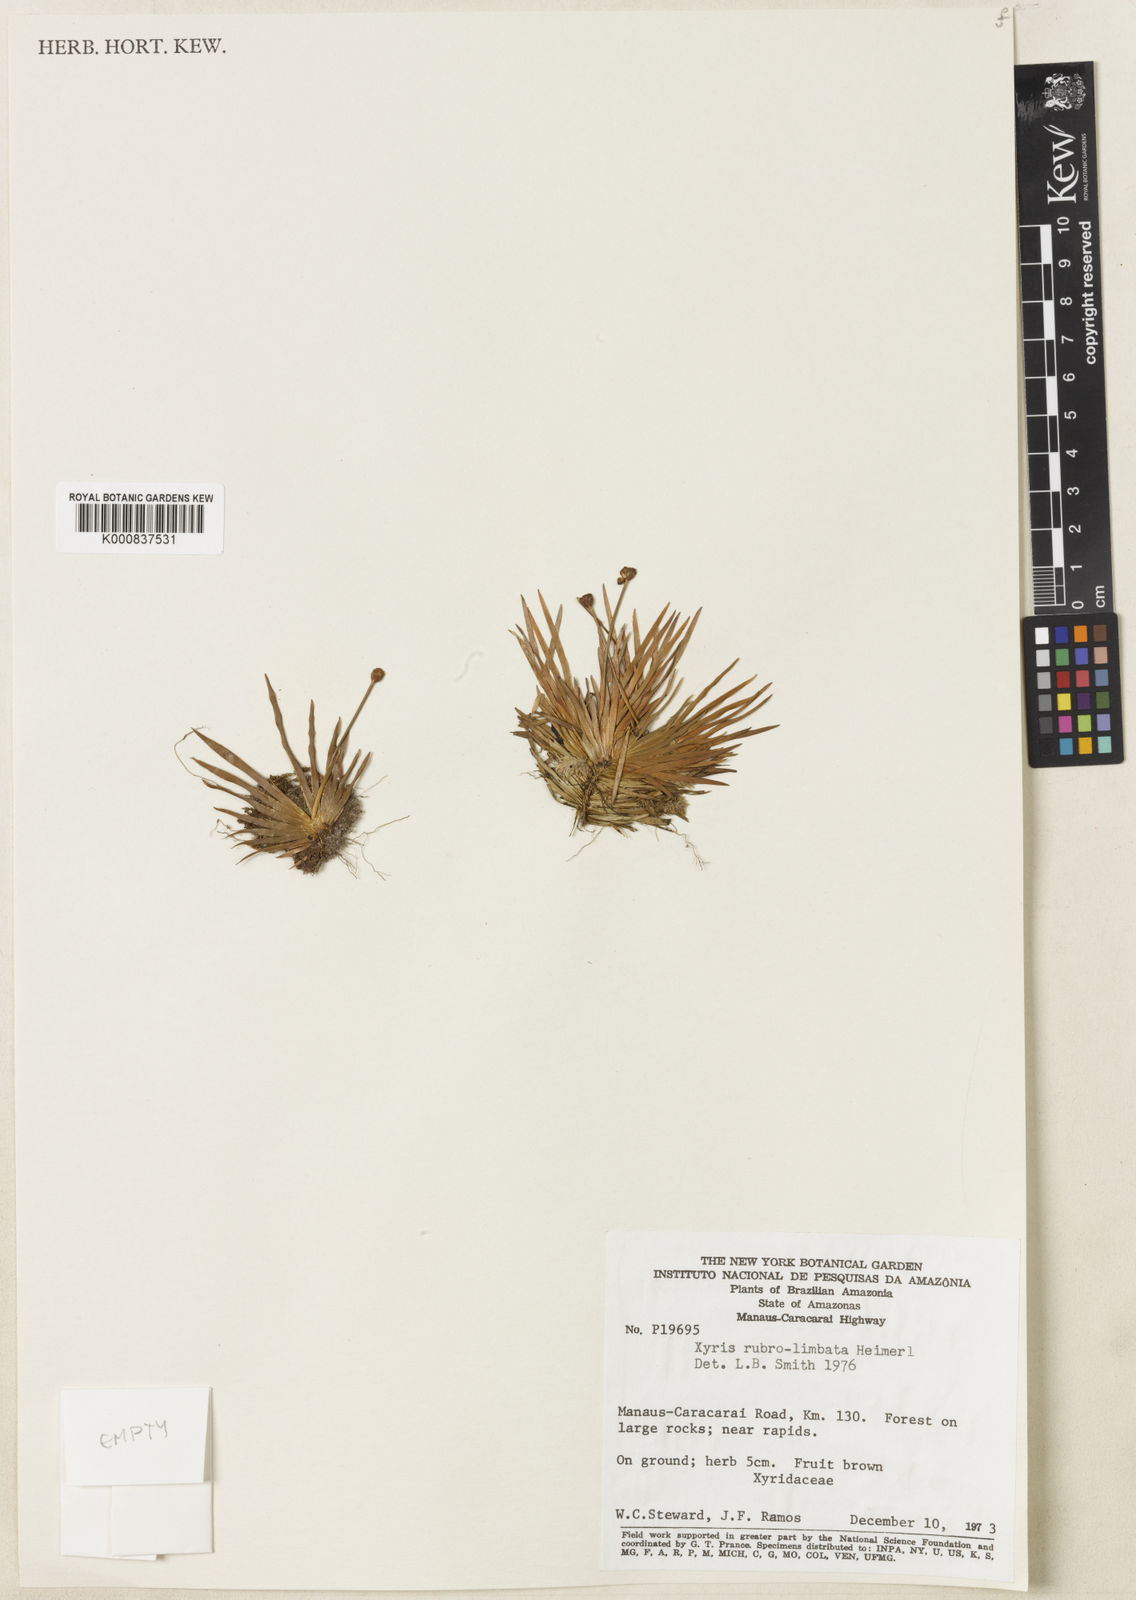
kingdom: Plantae
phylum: Tracheophyta
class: Liliopsida
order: Poales
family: Xyridaceae
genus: Xyris
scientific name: Xyris rubrolimbata
